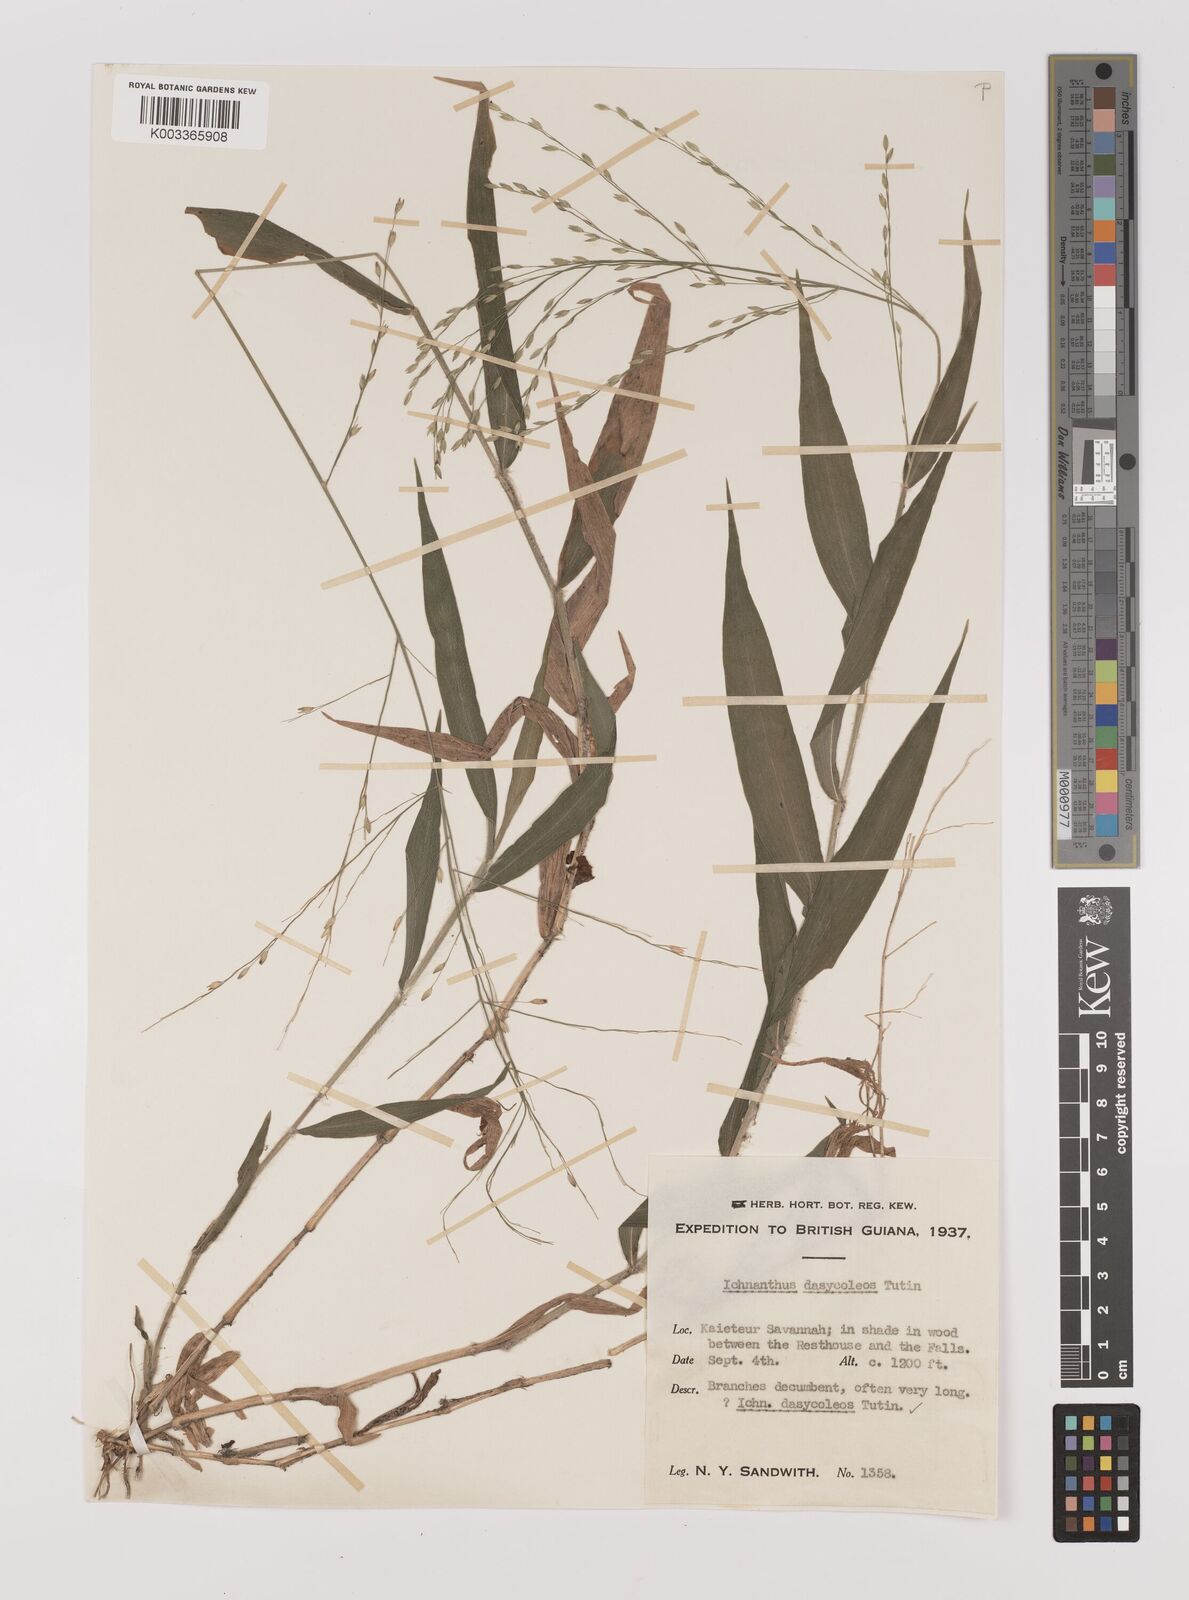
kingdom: Plantae
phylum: Tracheophyta
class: Liliopsida
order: Poales
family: Poaceae
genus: Ichnanthus
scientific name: Ichnanthus dasycoleus
